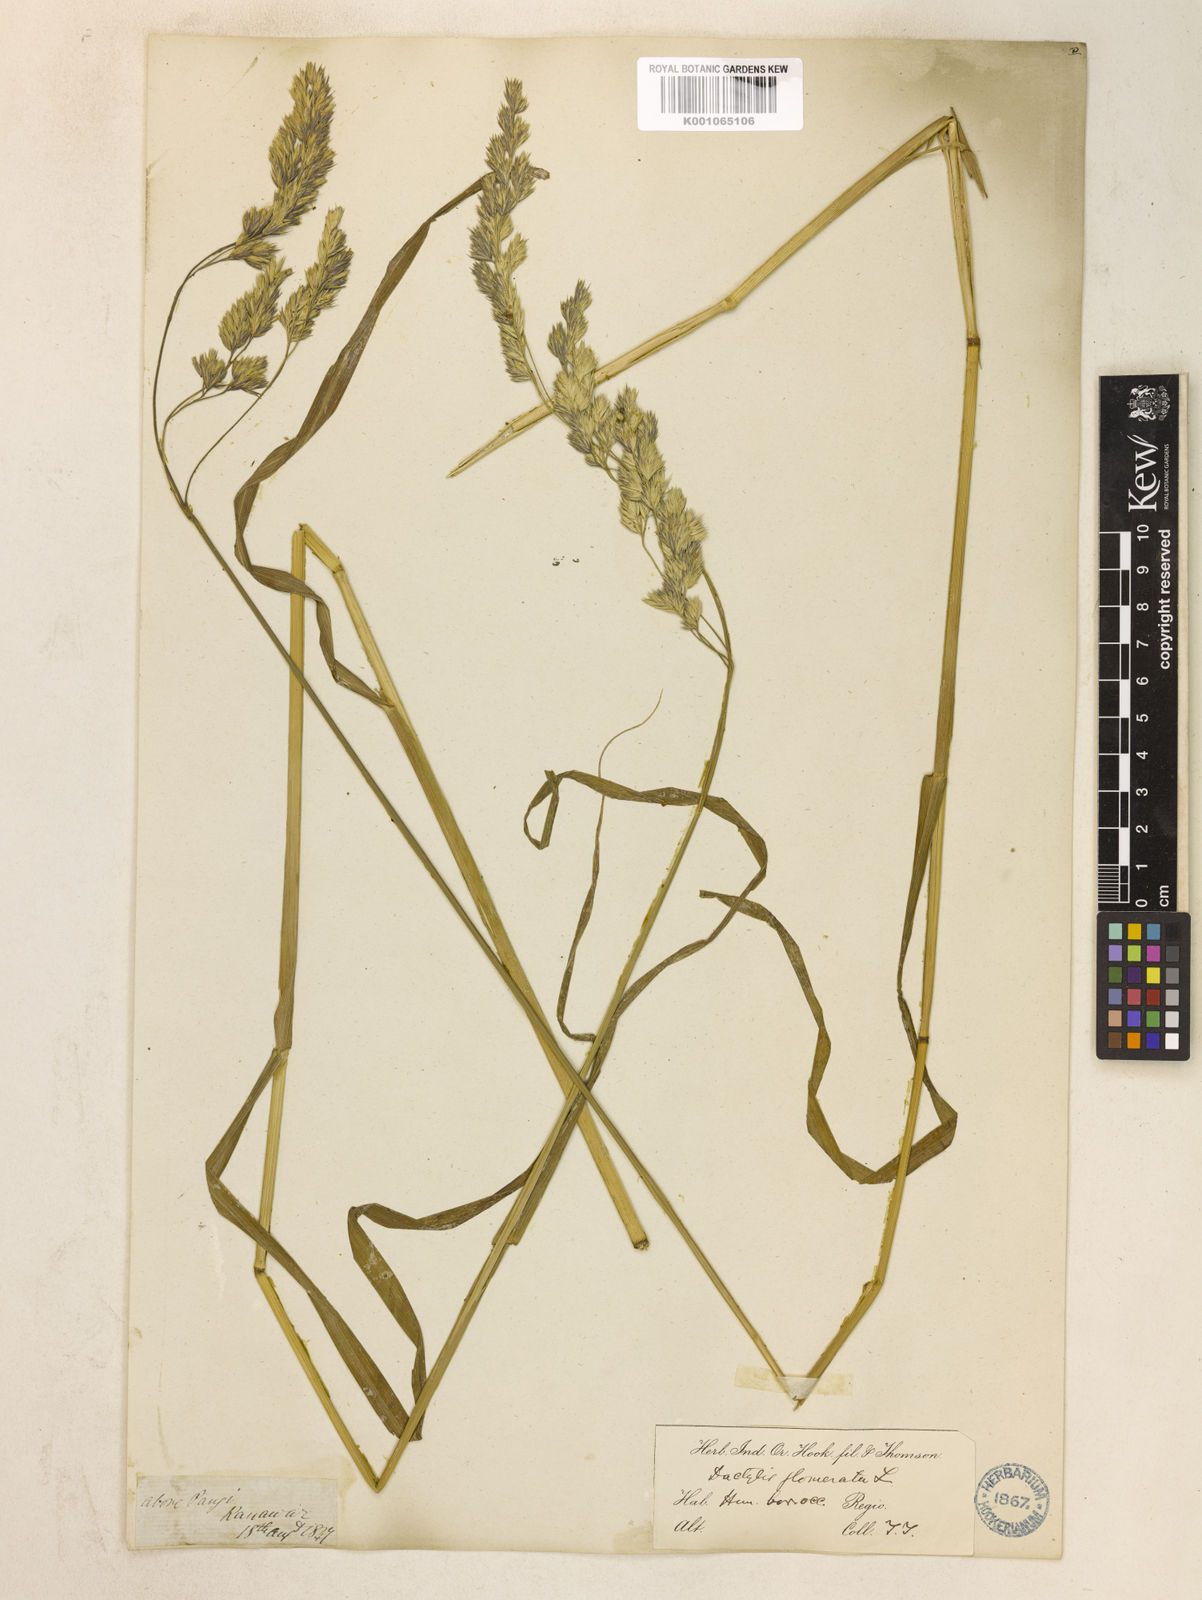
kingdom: Plantae
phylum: Tracheophyta
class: Liliopsida
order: Poales
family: Poaceae
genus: Dactylis
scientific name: Dactylis glomerata
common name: Orchardgrass
